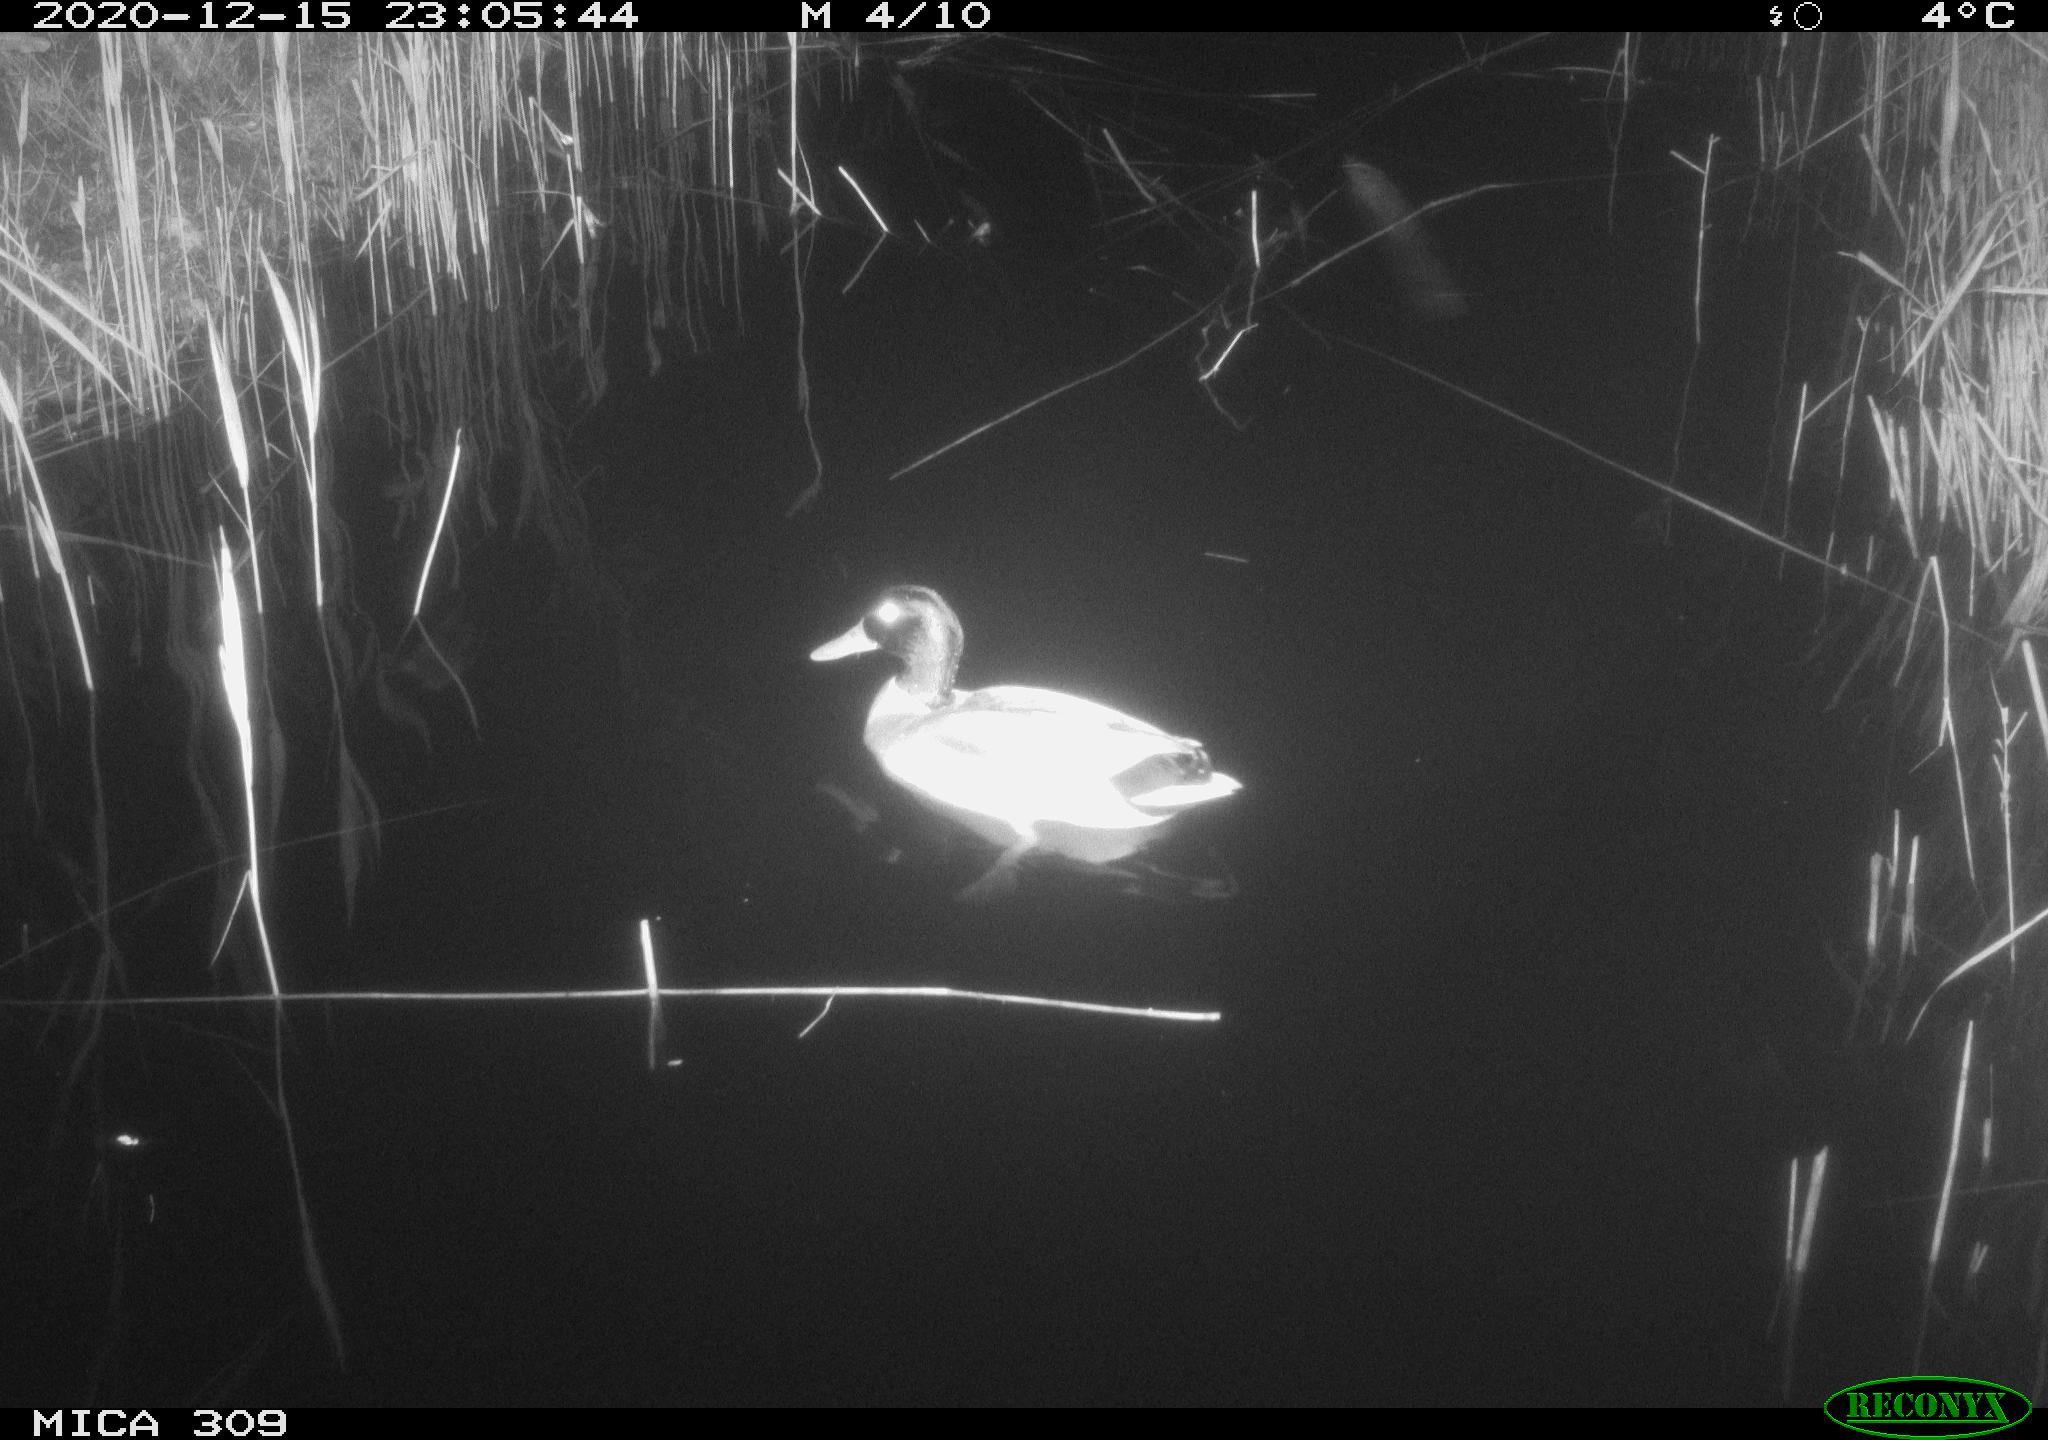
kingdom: Animalia
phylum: Chordata
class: Aves
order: Anseriformes
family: Anatidae
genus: Anas
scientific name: Anas platyrhynchos
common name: Mallard
